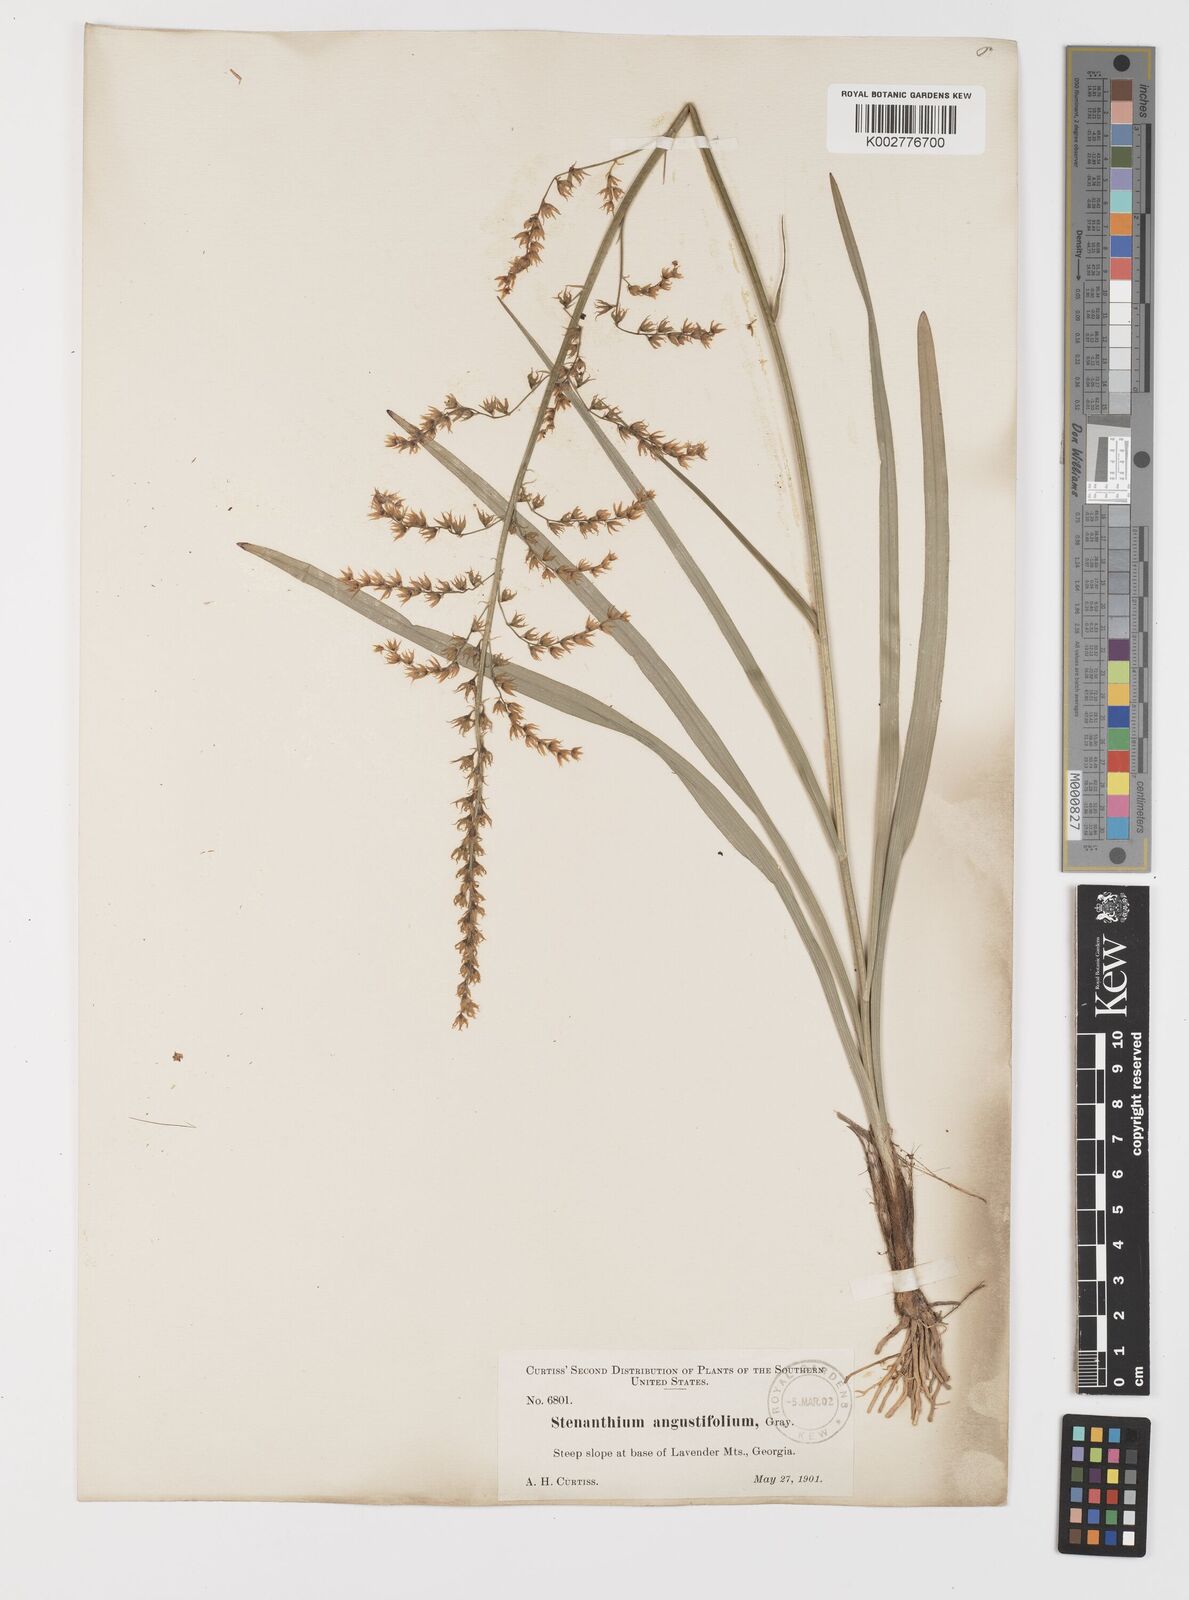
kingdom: Plantae
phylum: Tracheophyta
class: Liliopsida
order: Liliales
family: Melanthiaceae
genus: Stenanthium
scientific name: Stenanthium gramineum
